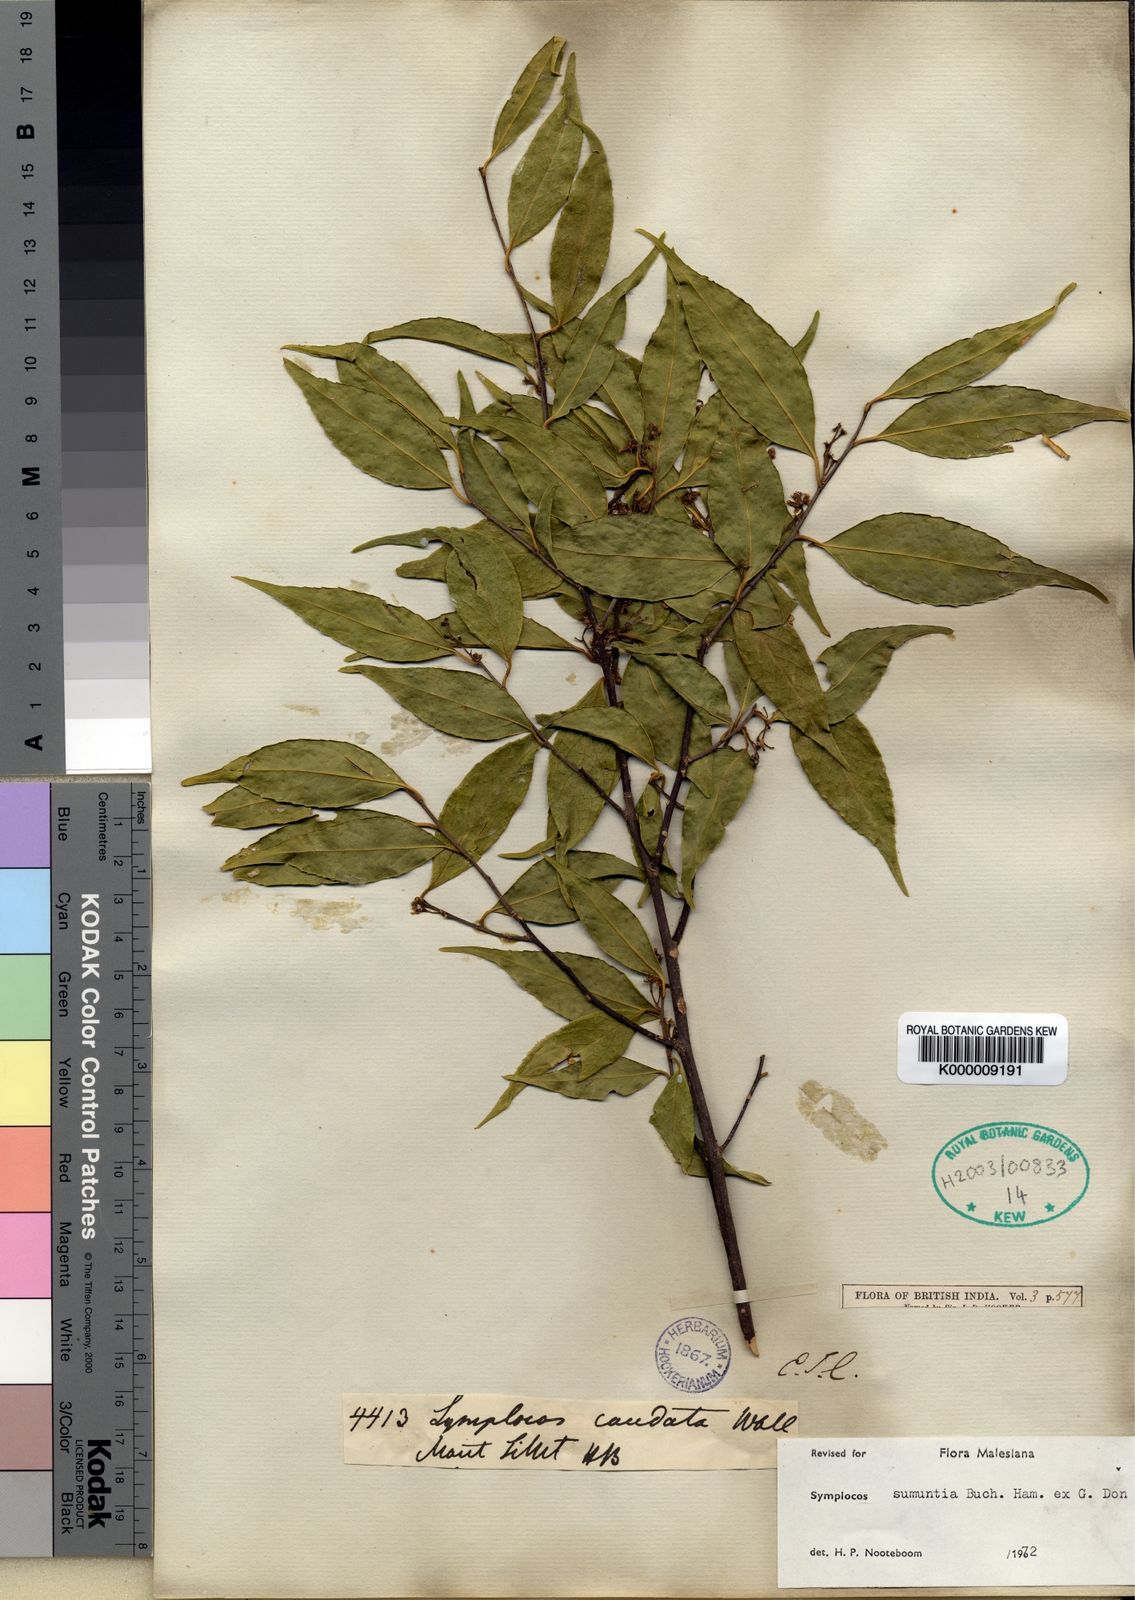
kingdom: Plantae
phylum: Tracheophyta
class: Magnoliopsida
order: Ericales
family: Symplocaceae
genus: Symplocos
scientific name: Symplocos sumuntia
